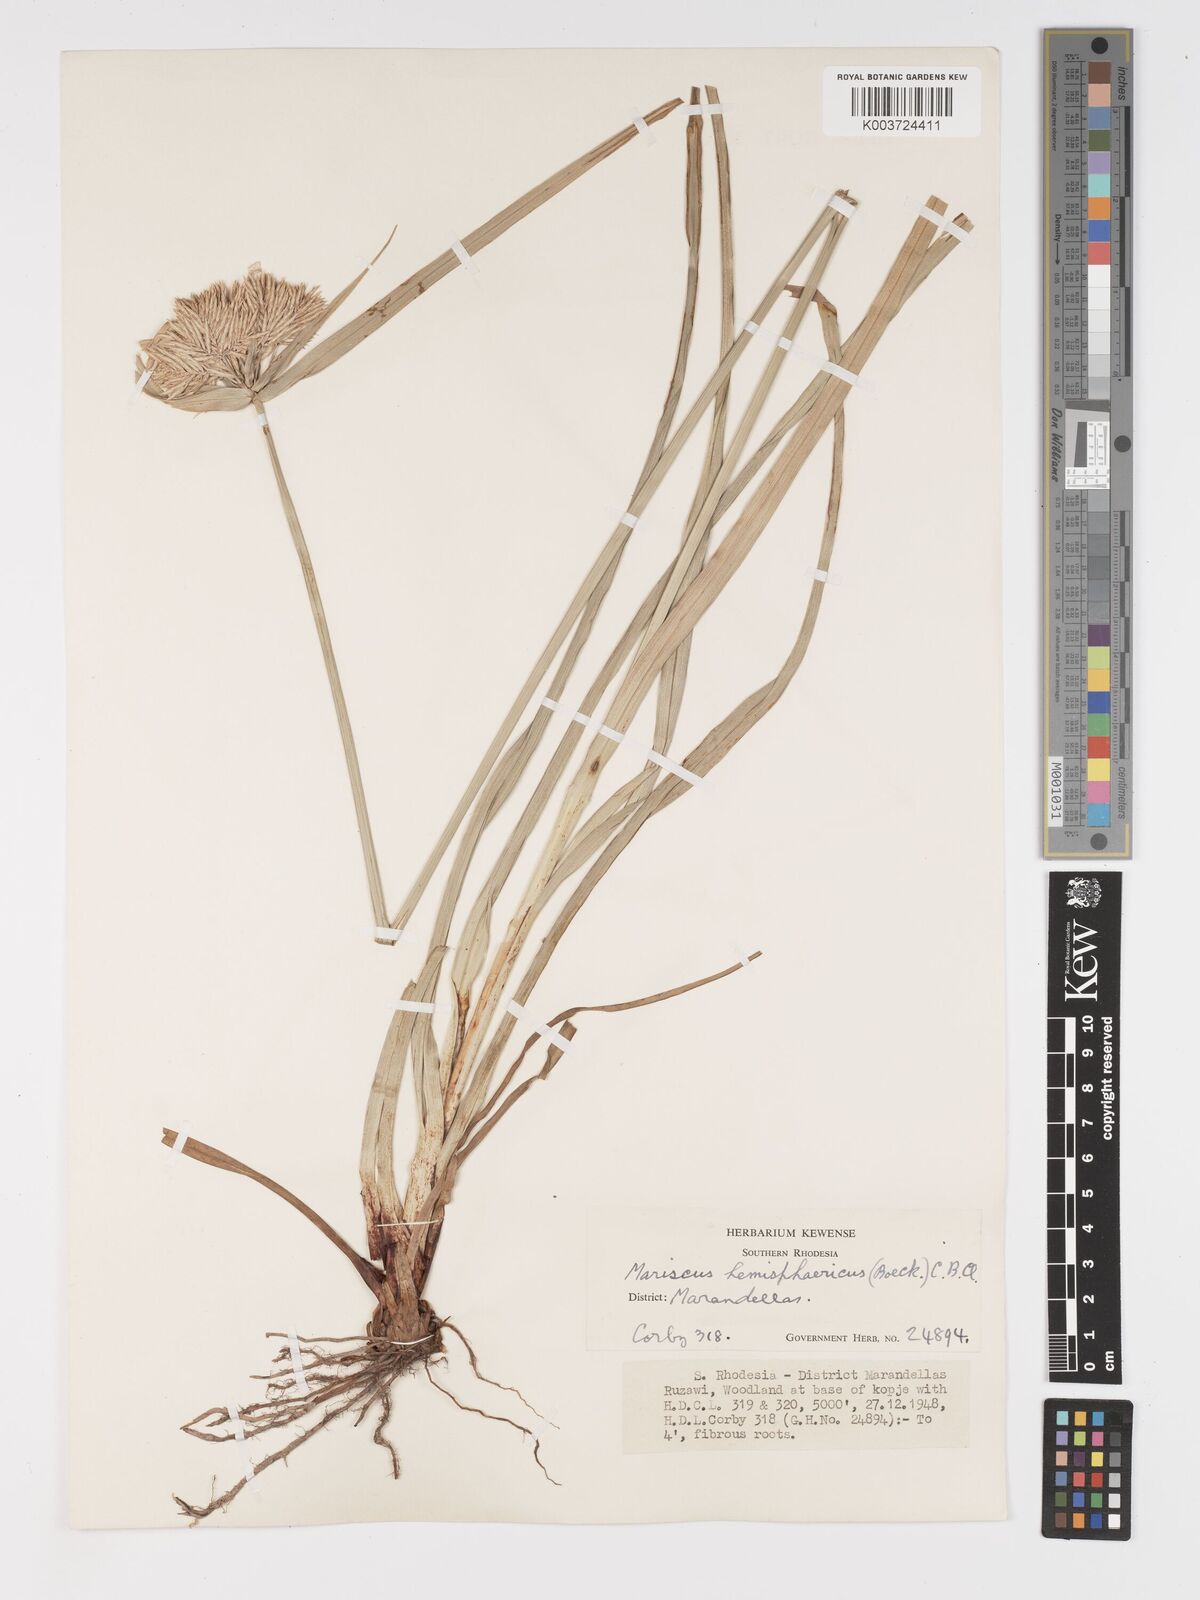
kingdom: Plantae
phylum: Tracheophyta
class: Liliopsida
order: Poales
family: Cyperaceae
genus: Cyperus
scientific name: Cyperus hemisphaericus
